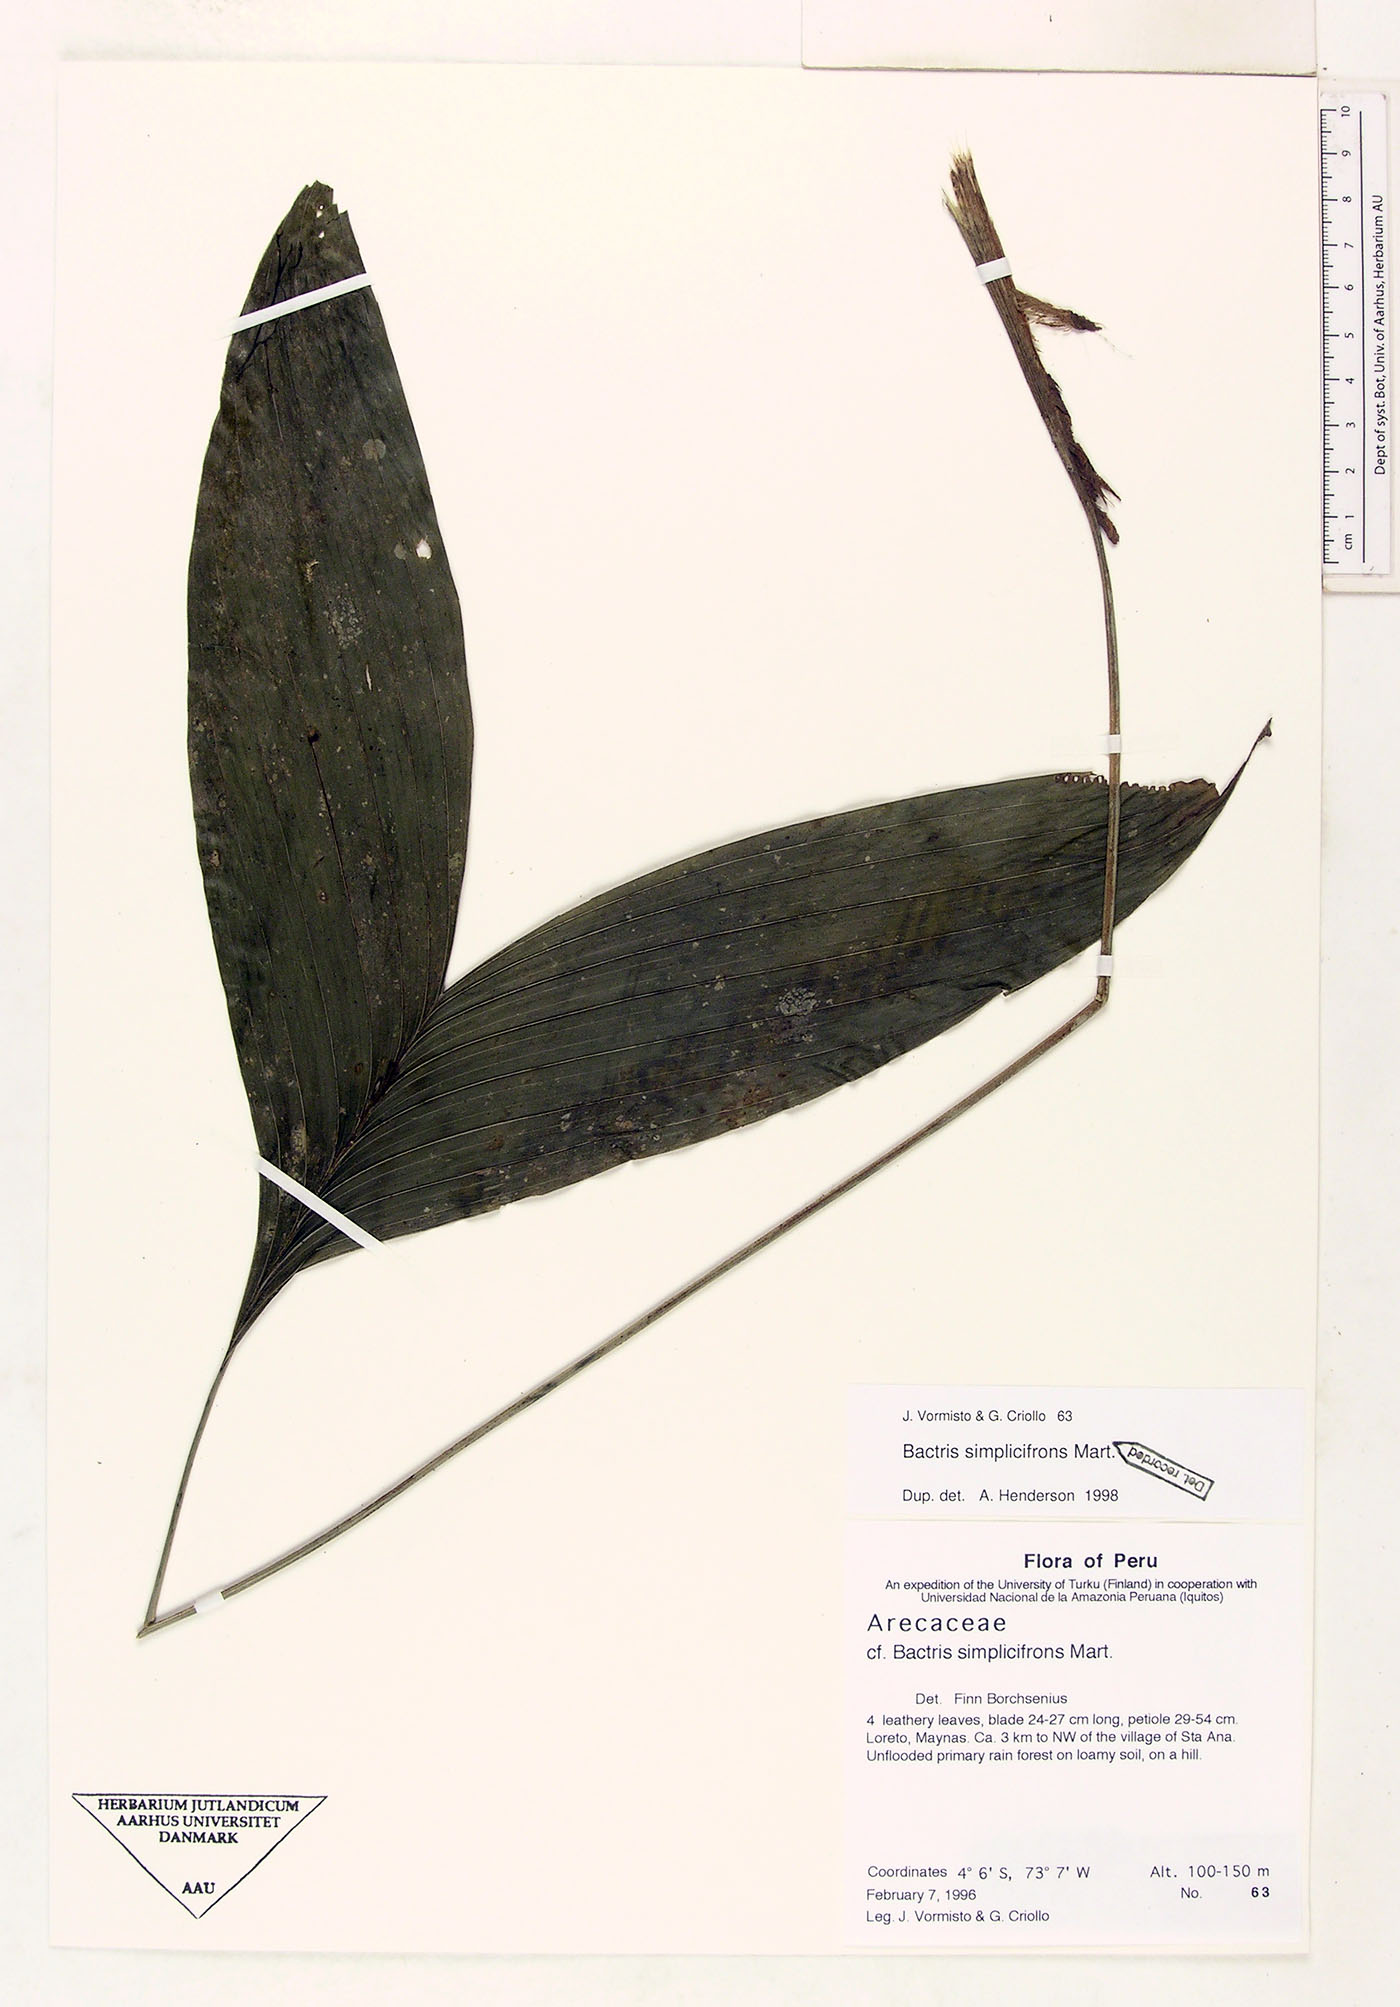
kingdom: Plantae
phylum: Tracheophyta
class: Liliopsida
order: Arecales
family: Arecaceae
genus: Bactris
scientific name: Bactris simplicifrons
